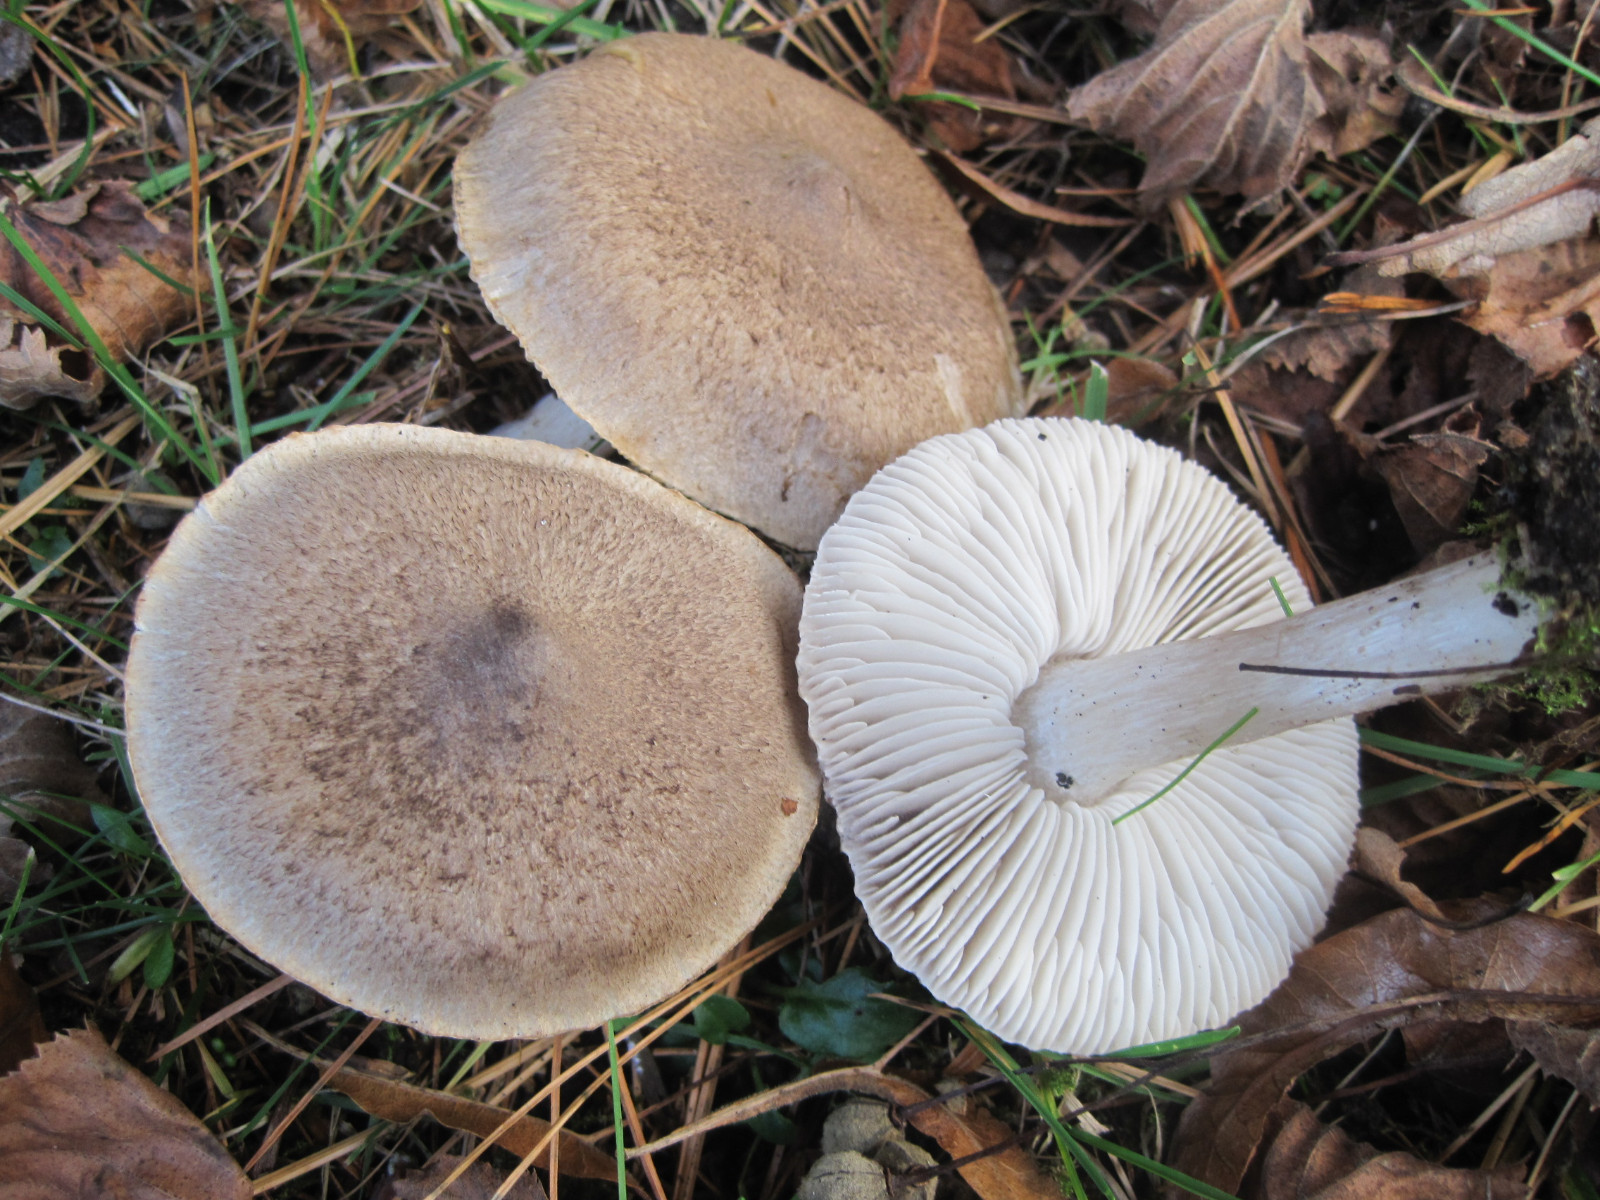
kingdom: Fungi
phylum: Basidiomycota
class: Agaricomycetes
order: Agaricales
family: Tricholomataceae
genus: Tricholoma
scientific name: Tricholoma terreum
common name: jordfarvet ridderhat
